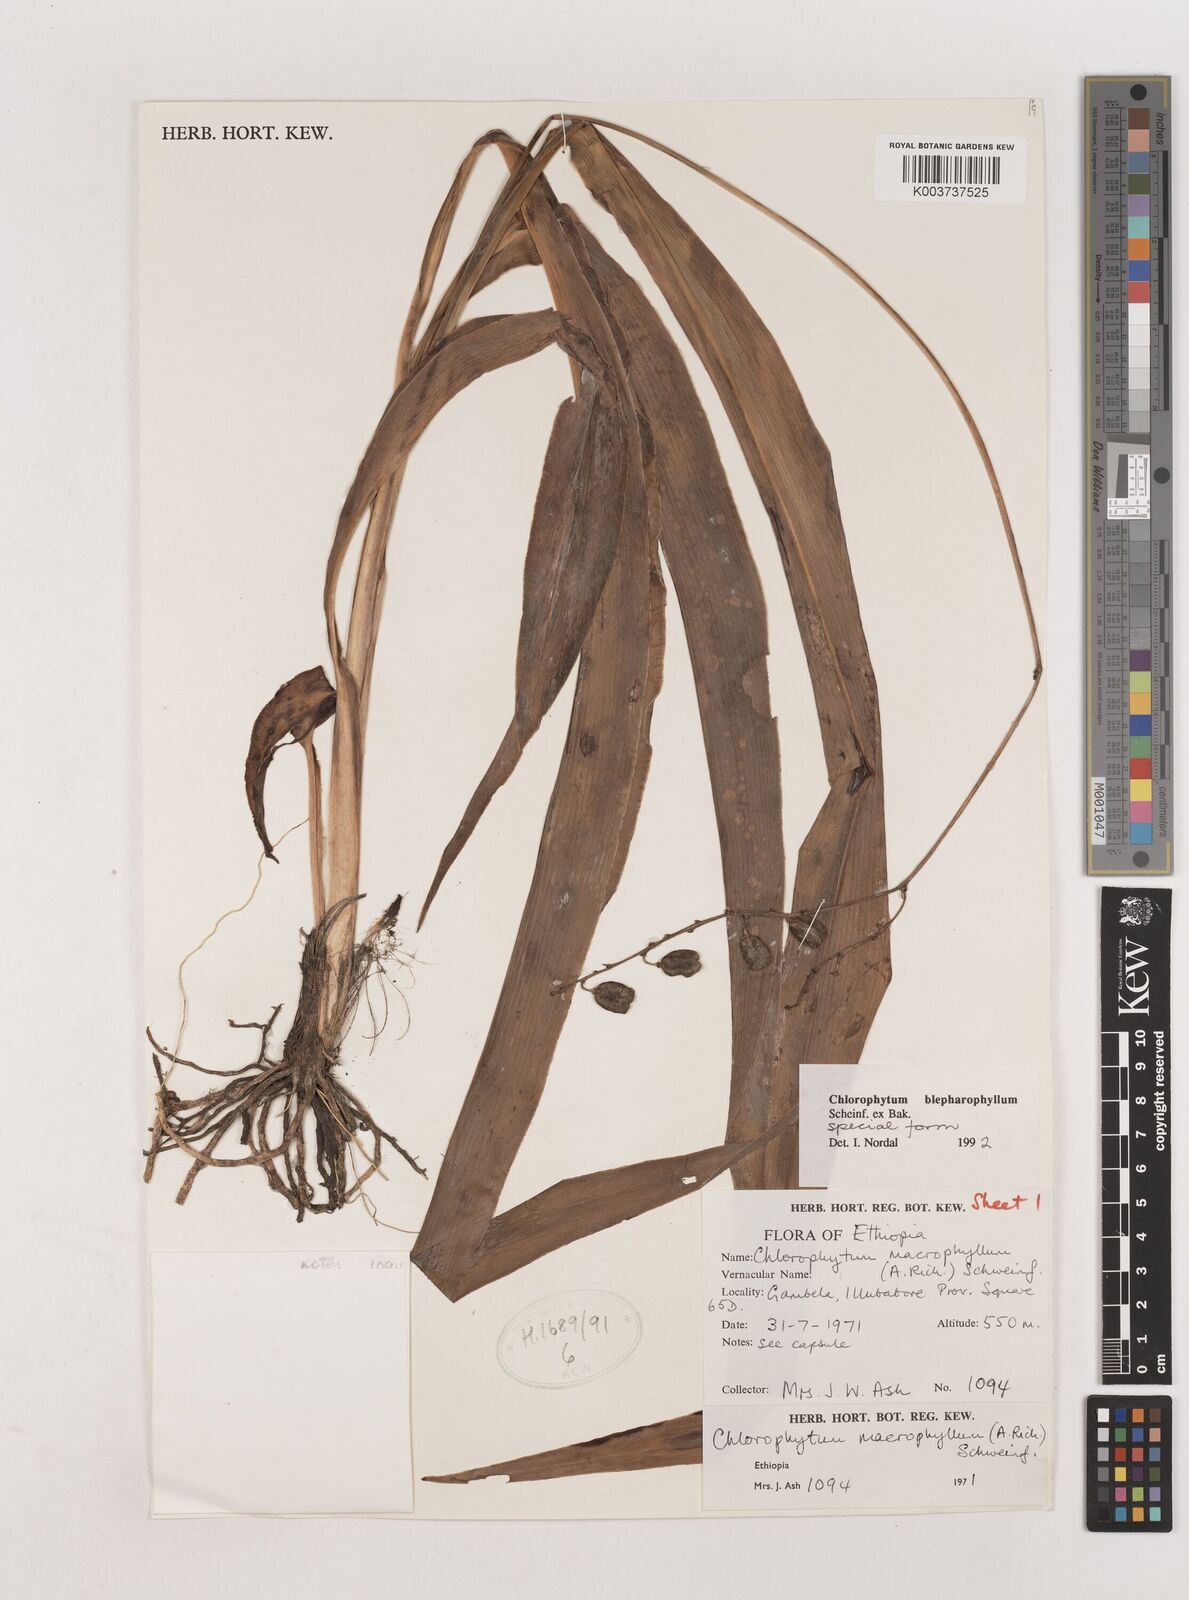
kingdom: Plantae
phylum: Tracheophyta
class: Liliopsida
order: Asparagales
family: Asparagaceae
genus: Chlorophytum
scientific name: Chlorophytum blepharophyllum
